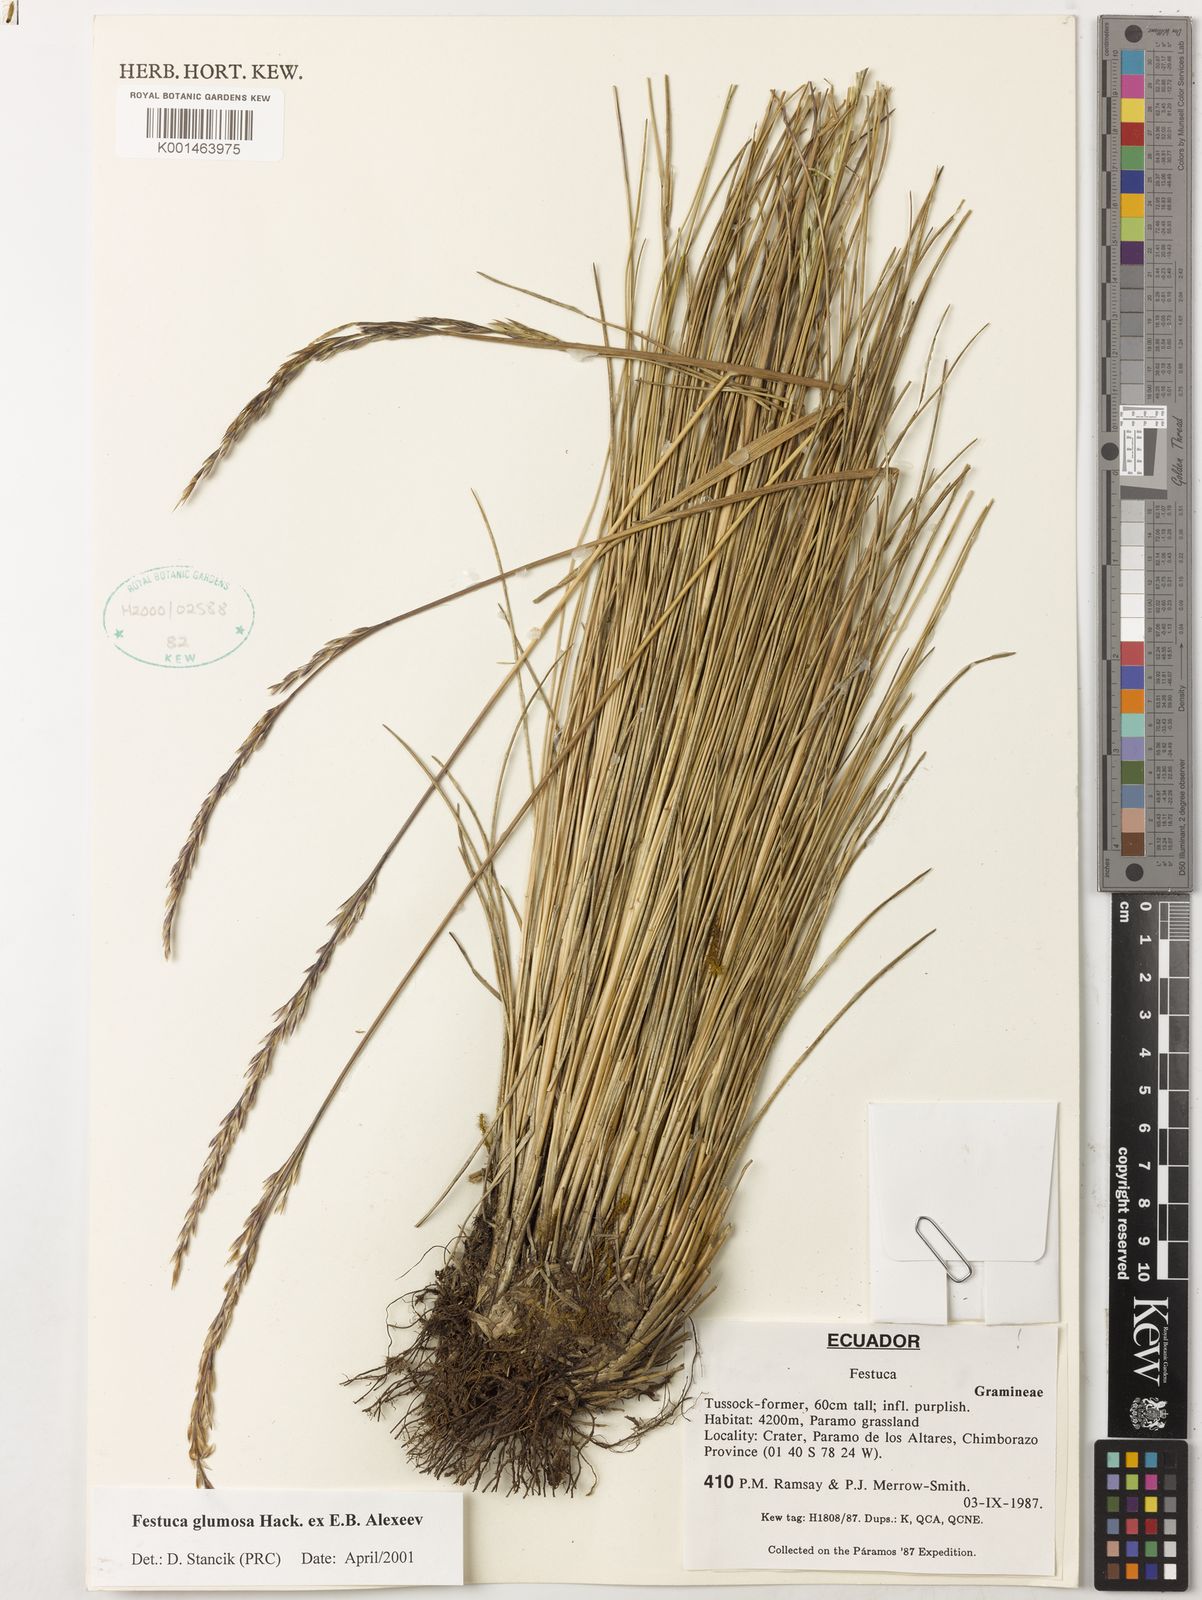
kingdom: Plantae
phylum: Tracheophyta
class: Liliopsida
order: Poales
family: Poaceae
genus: Festuca
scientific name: Festuca glumosa
